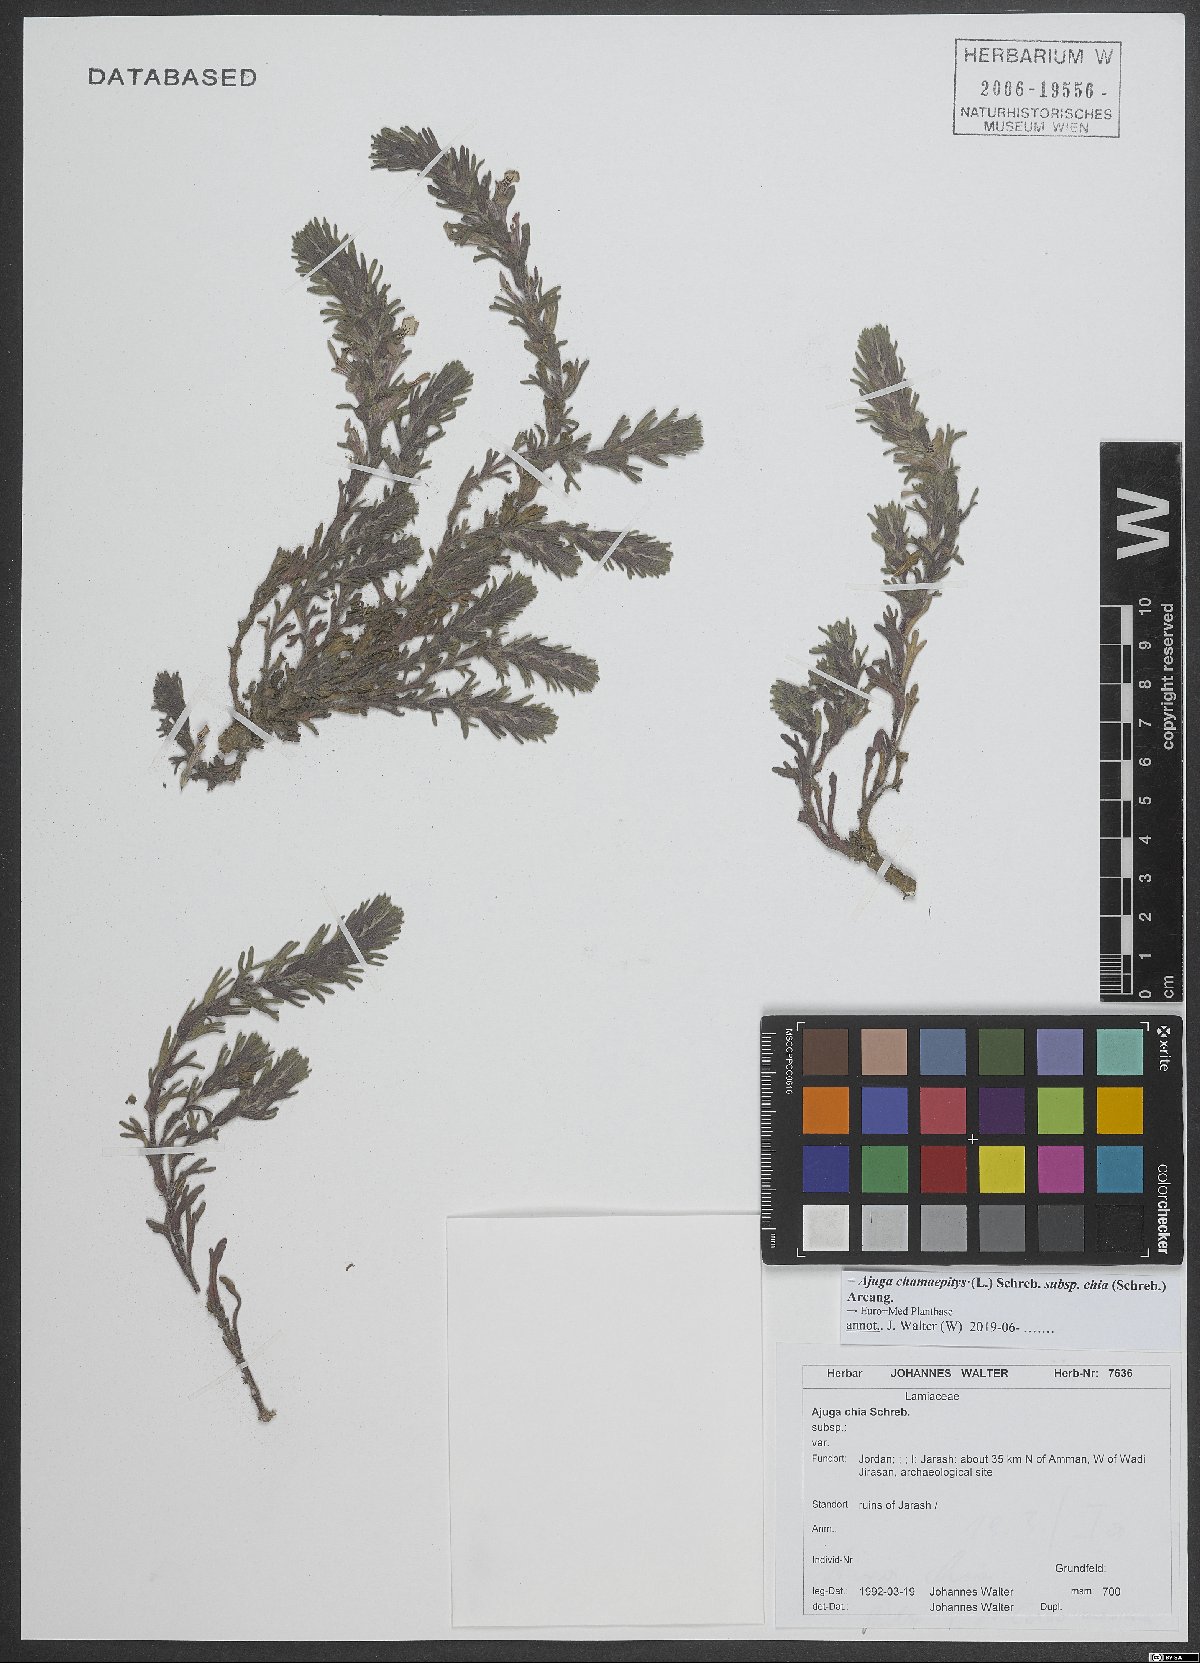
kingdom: Plantae
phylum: Tracheophyta
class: Magnoliopsida
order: Lamiales
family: Lamiaceae
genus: Ajuga
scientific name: Ajuga chamaepitys
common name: Ground-pine
